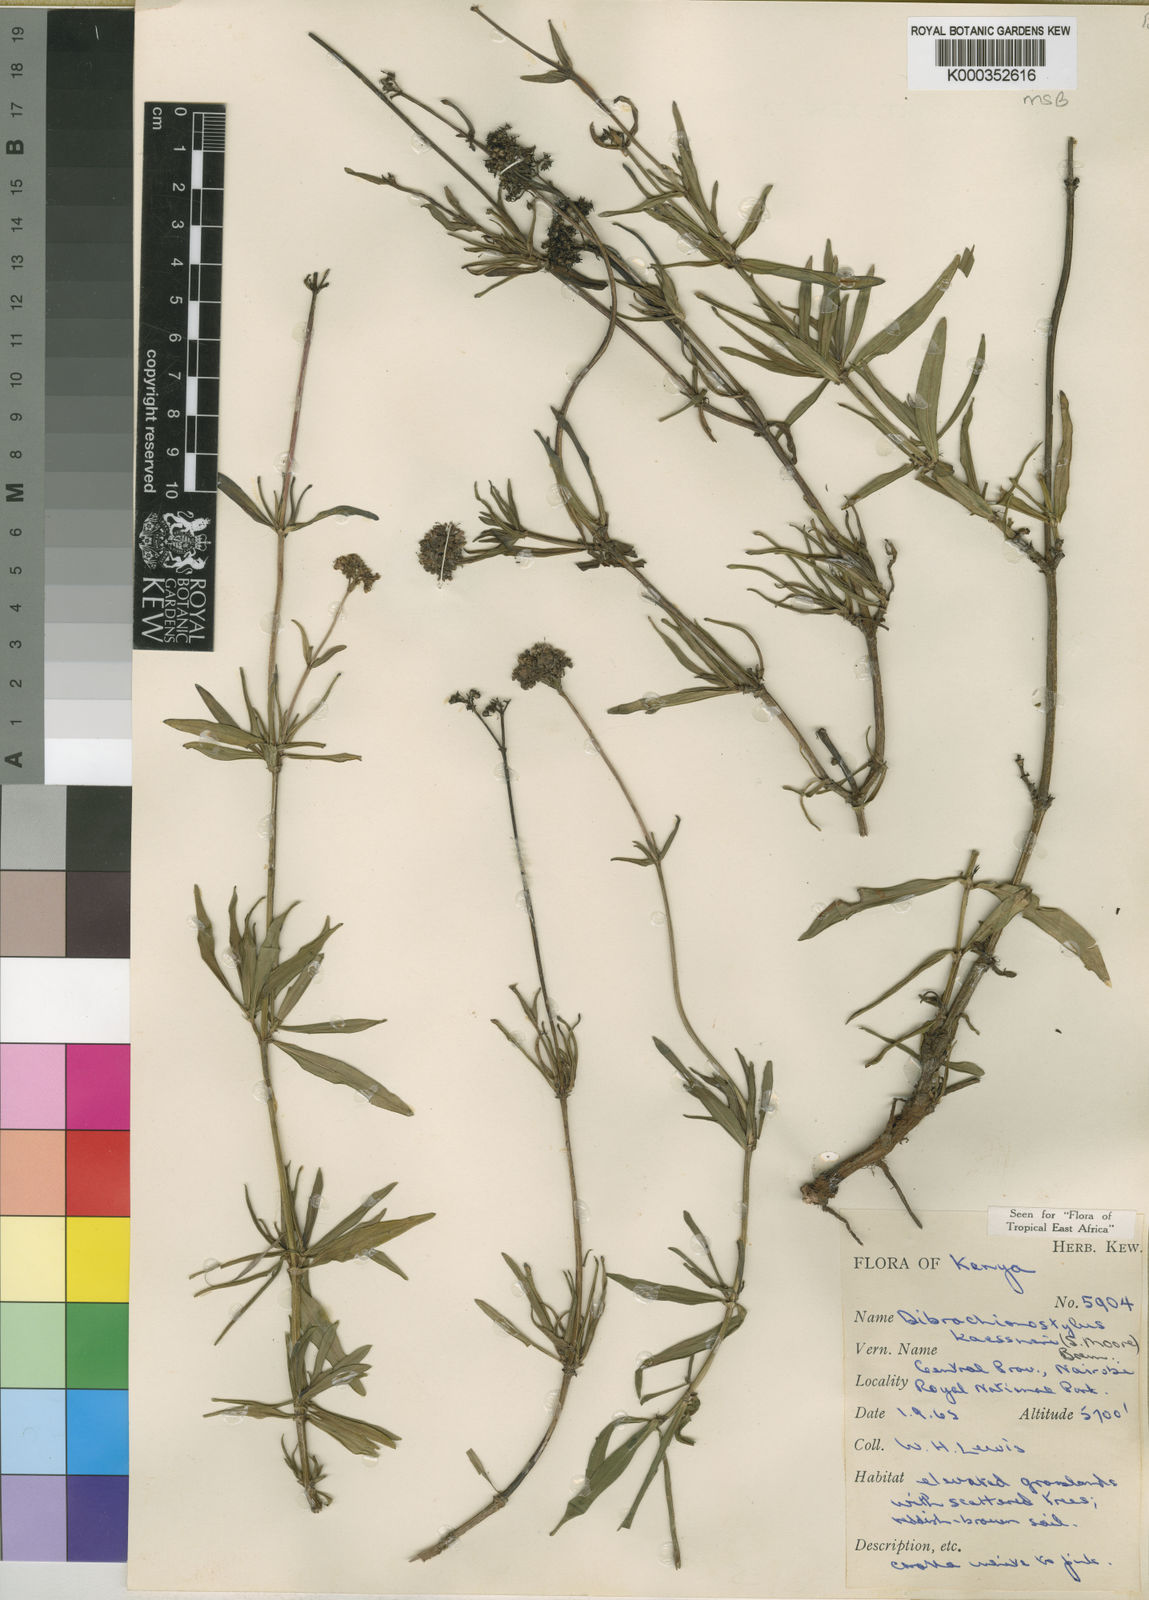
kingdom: Plantae
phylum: Tracheophyta
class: Magnoliopsida
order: Gentianales
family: Rubiaceae
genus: Dibrachionostylus
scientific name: Dibrachionostylus kaessneri
